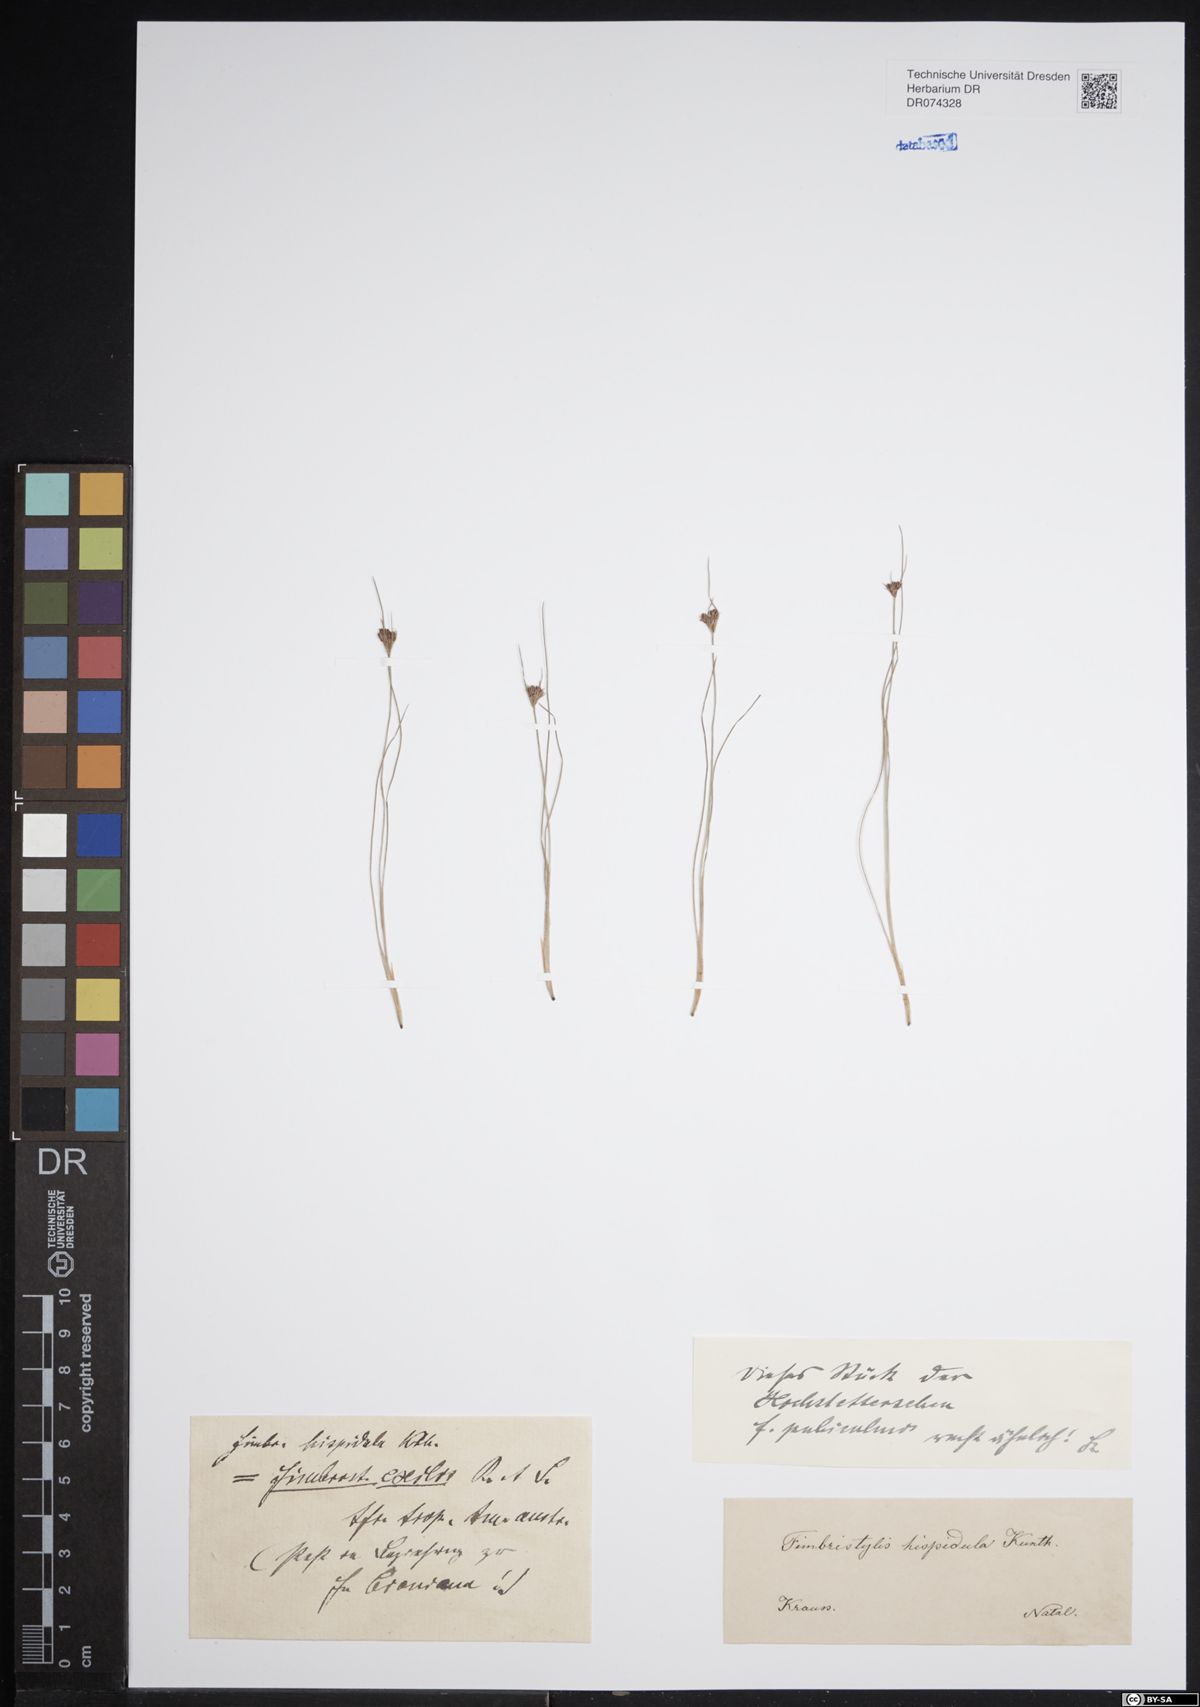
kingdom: Plantae
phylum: Tracheophyta
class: Liliopsida
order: Poales
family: Cyperaceae
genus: Bulbostylis
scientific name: Bulbostylis hispidula
